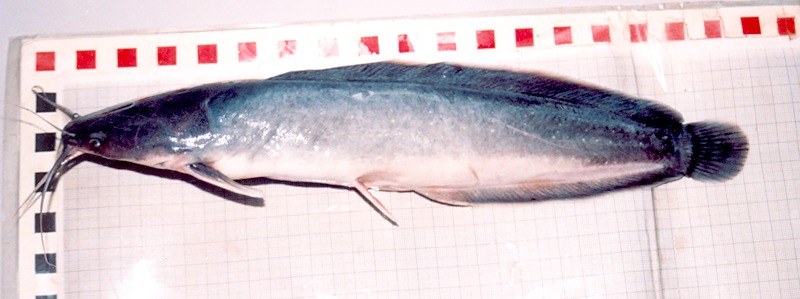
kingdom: Animalia
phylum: Chordata
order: Siluriformes
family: Clariidae
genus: Clarias
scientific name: Clarias meladerma
